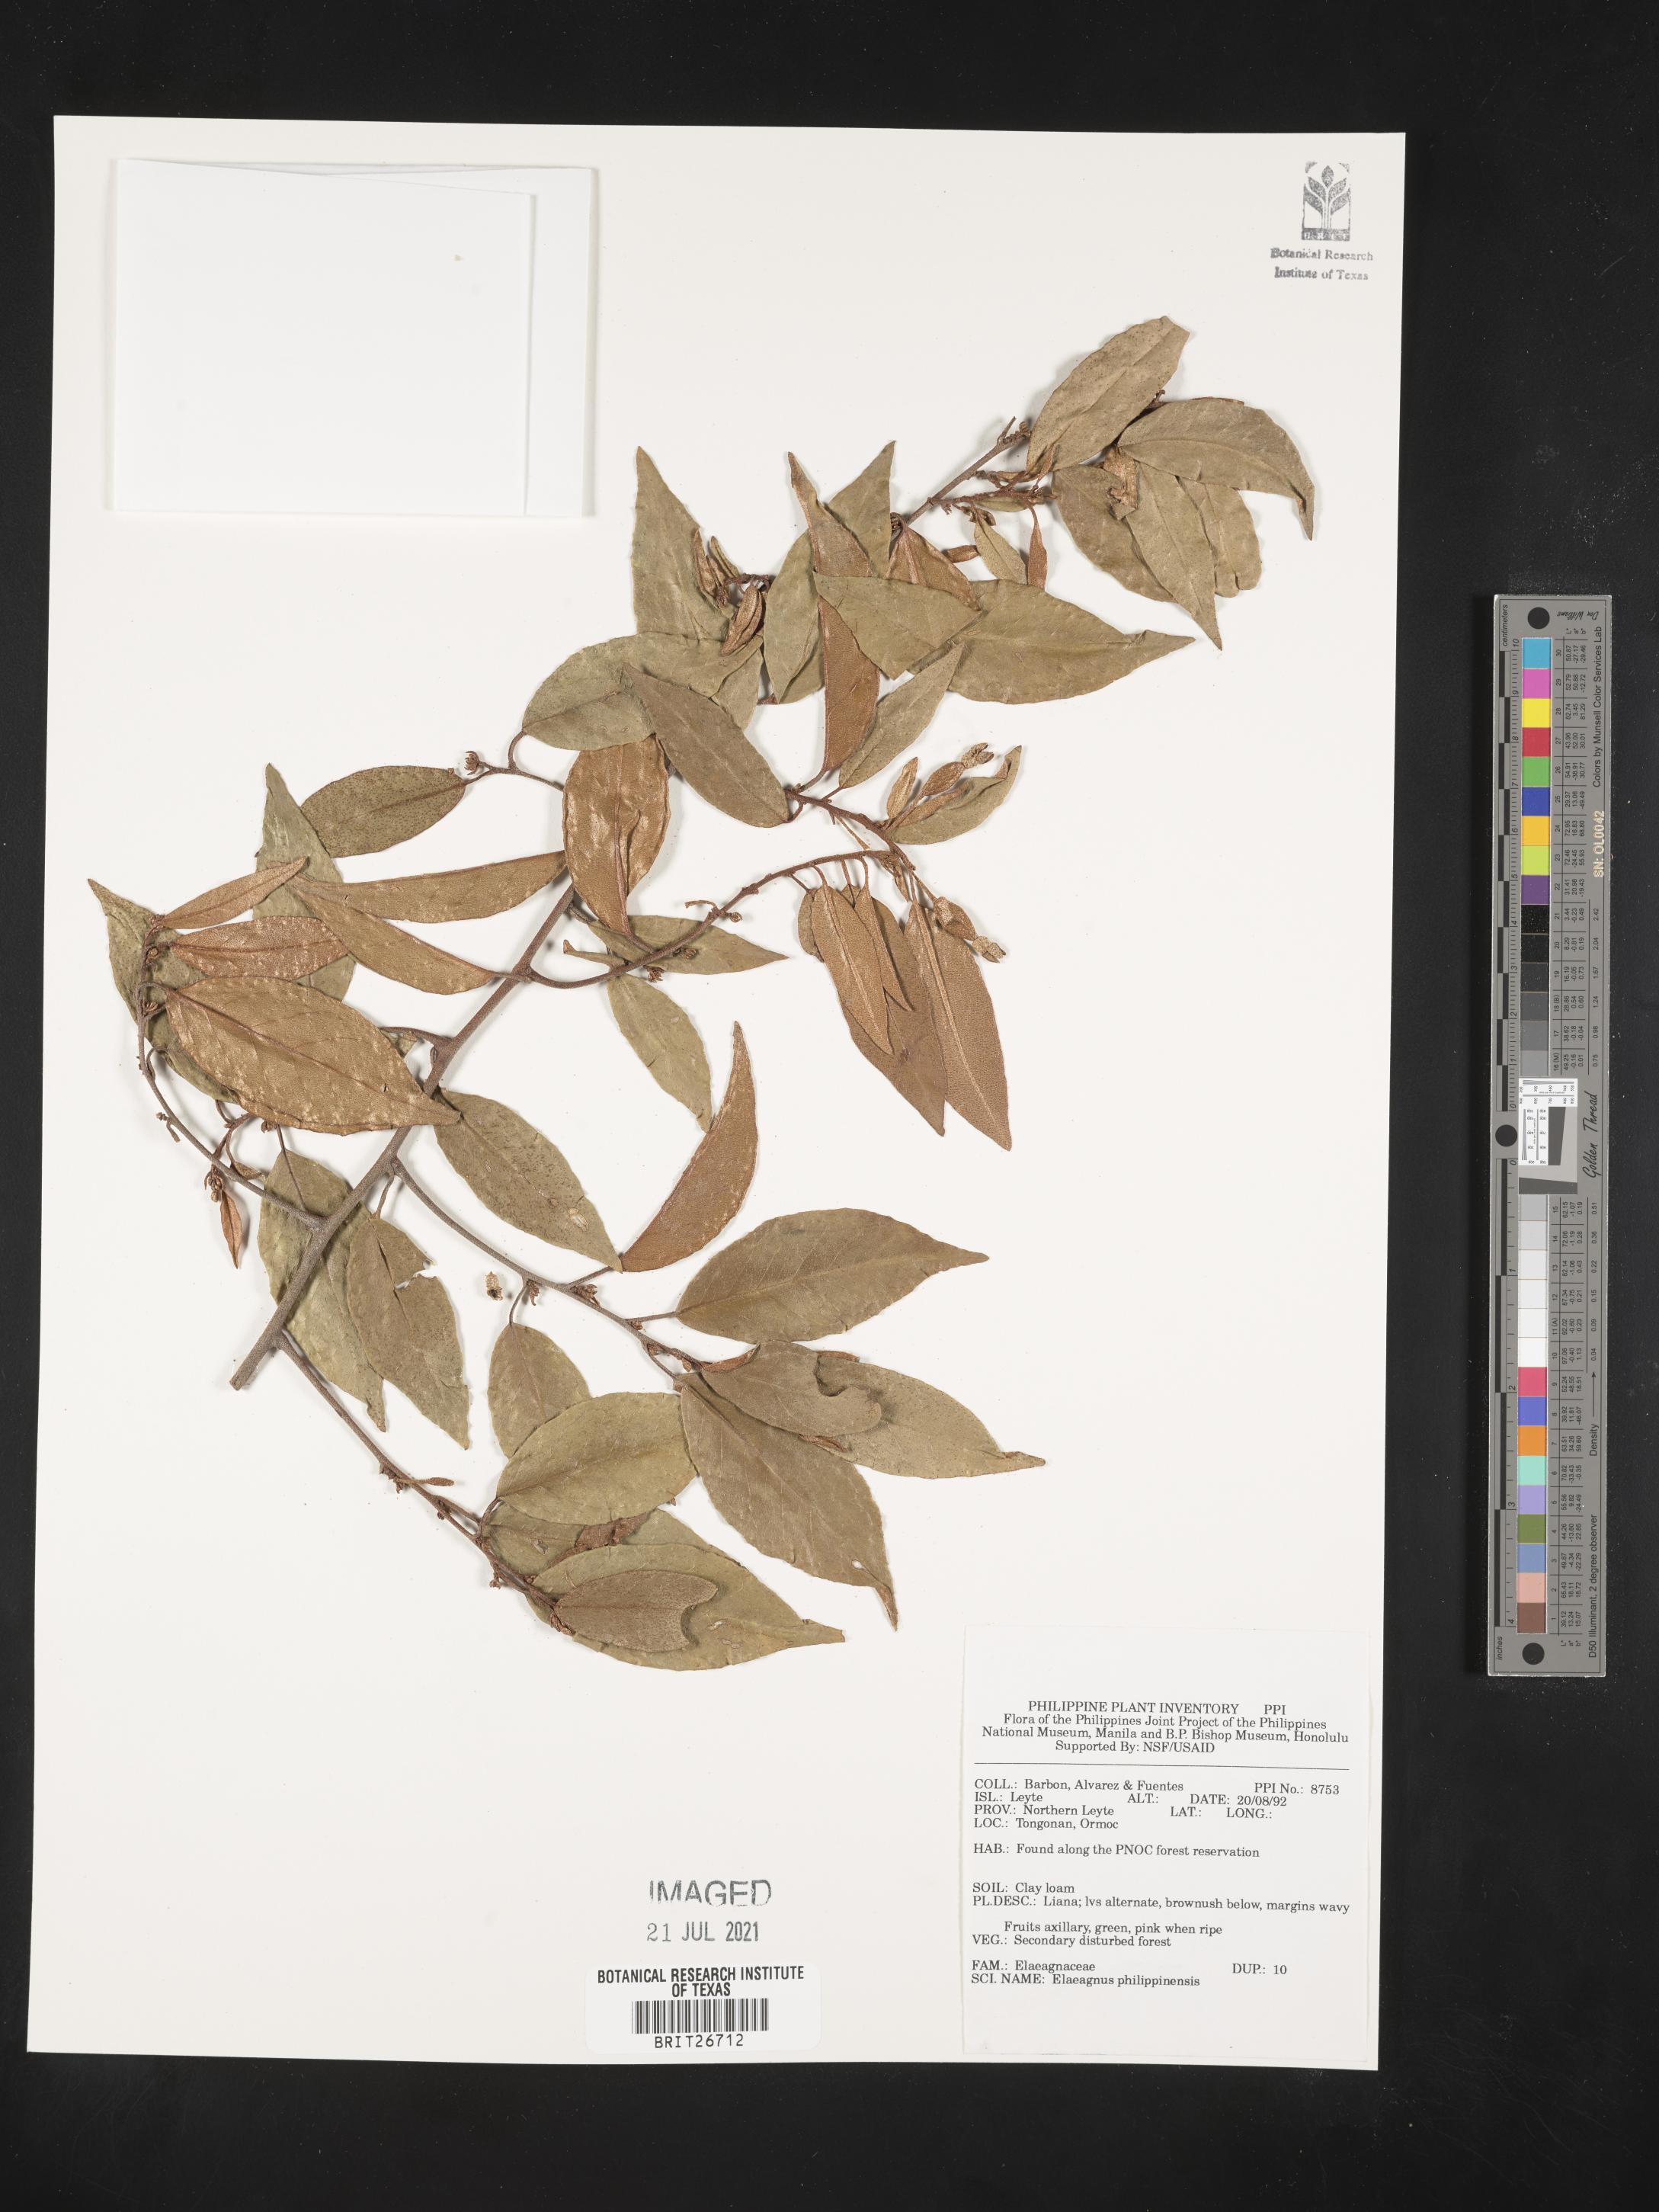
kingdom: Plantae
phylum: Tracheophyta
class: Magnoliopsida
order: Rosales
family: Elaeagnaceae
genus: Elaeagnus
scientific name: Elaeagnus triflora
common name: Millaa millaa-vine
